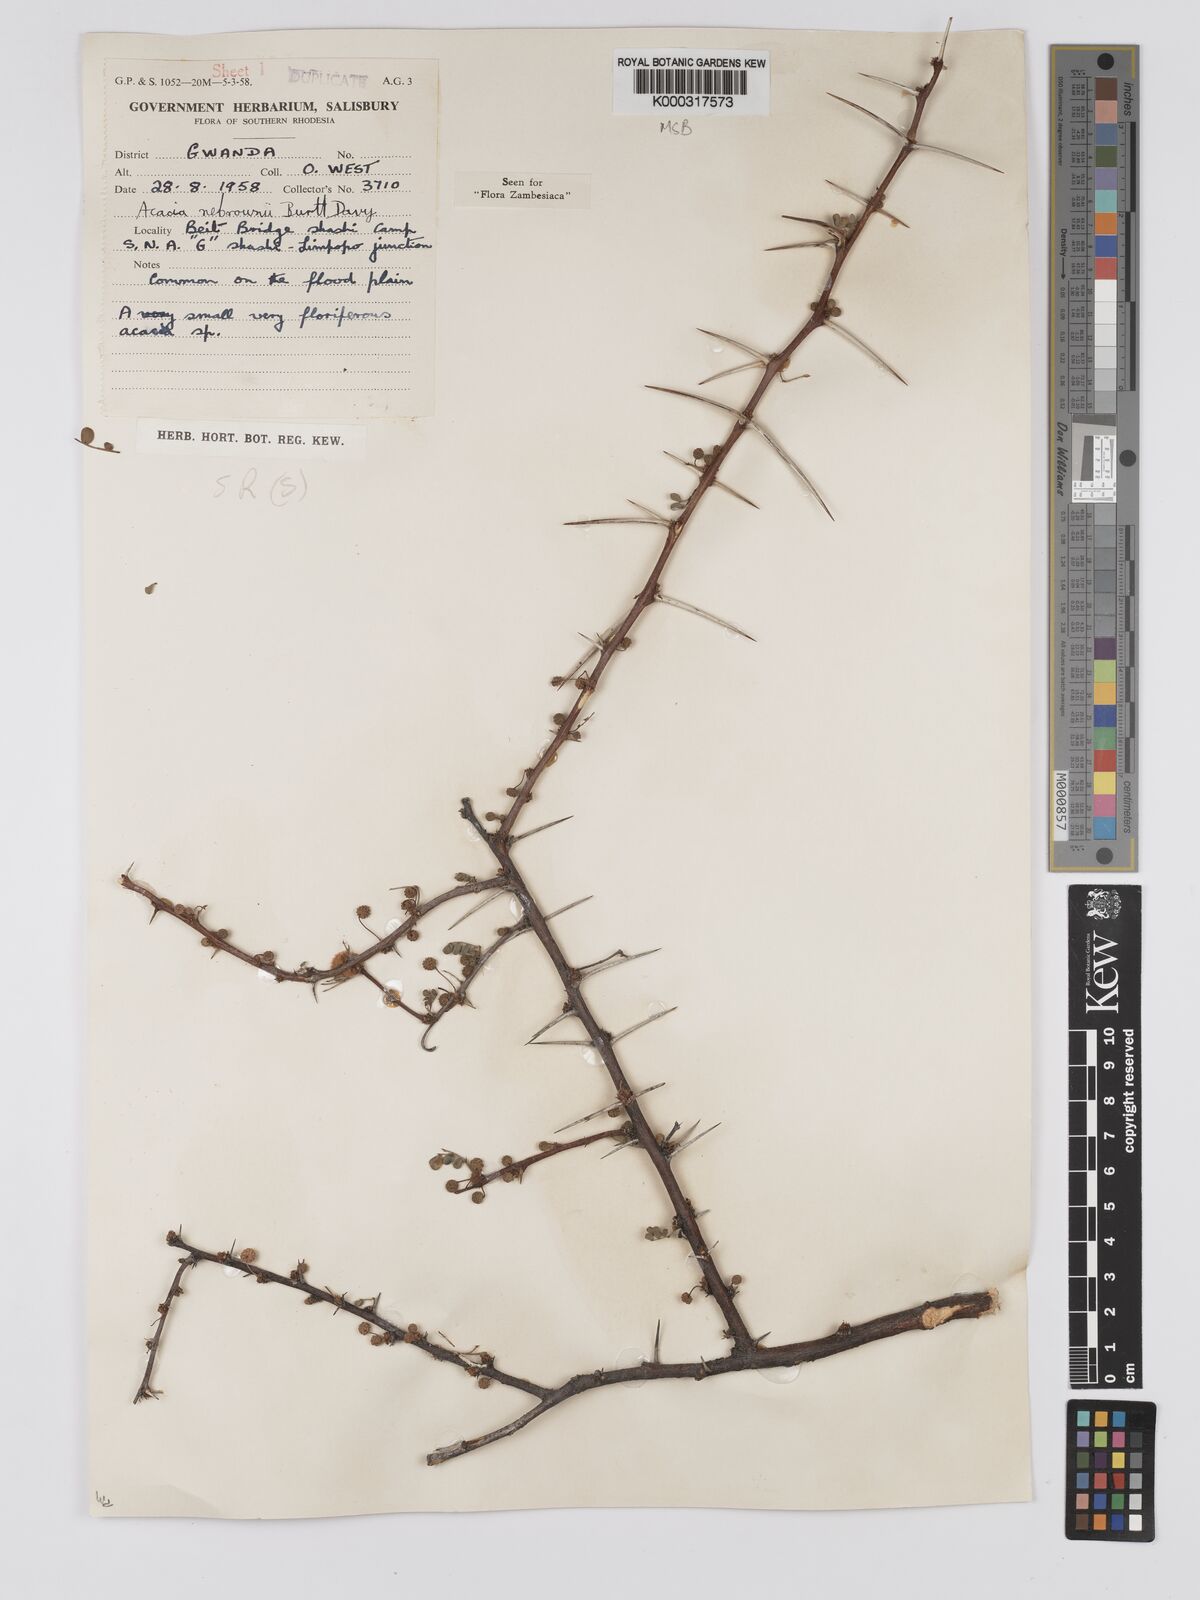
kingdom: Plantae
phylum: Tracheophyta
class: Magnoliopsida
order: Fabales
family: Fabaceae
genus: Vachellia
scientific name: Vachellia nebrownii
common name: Water acacia
